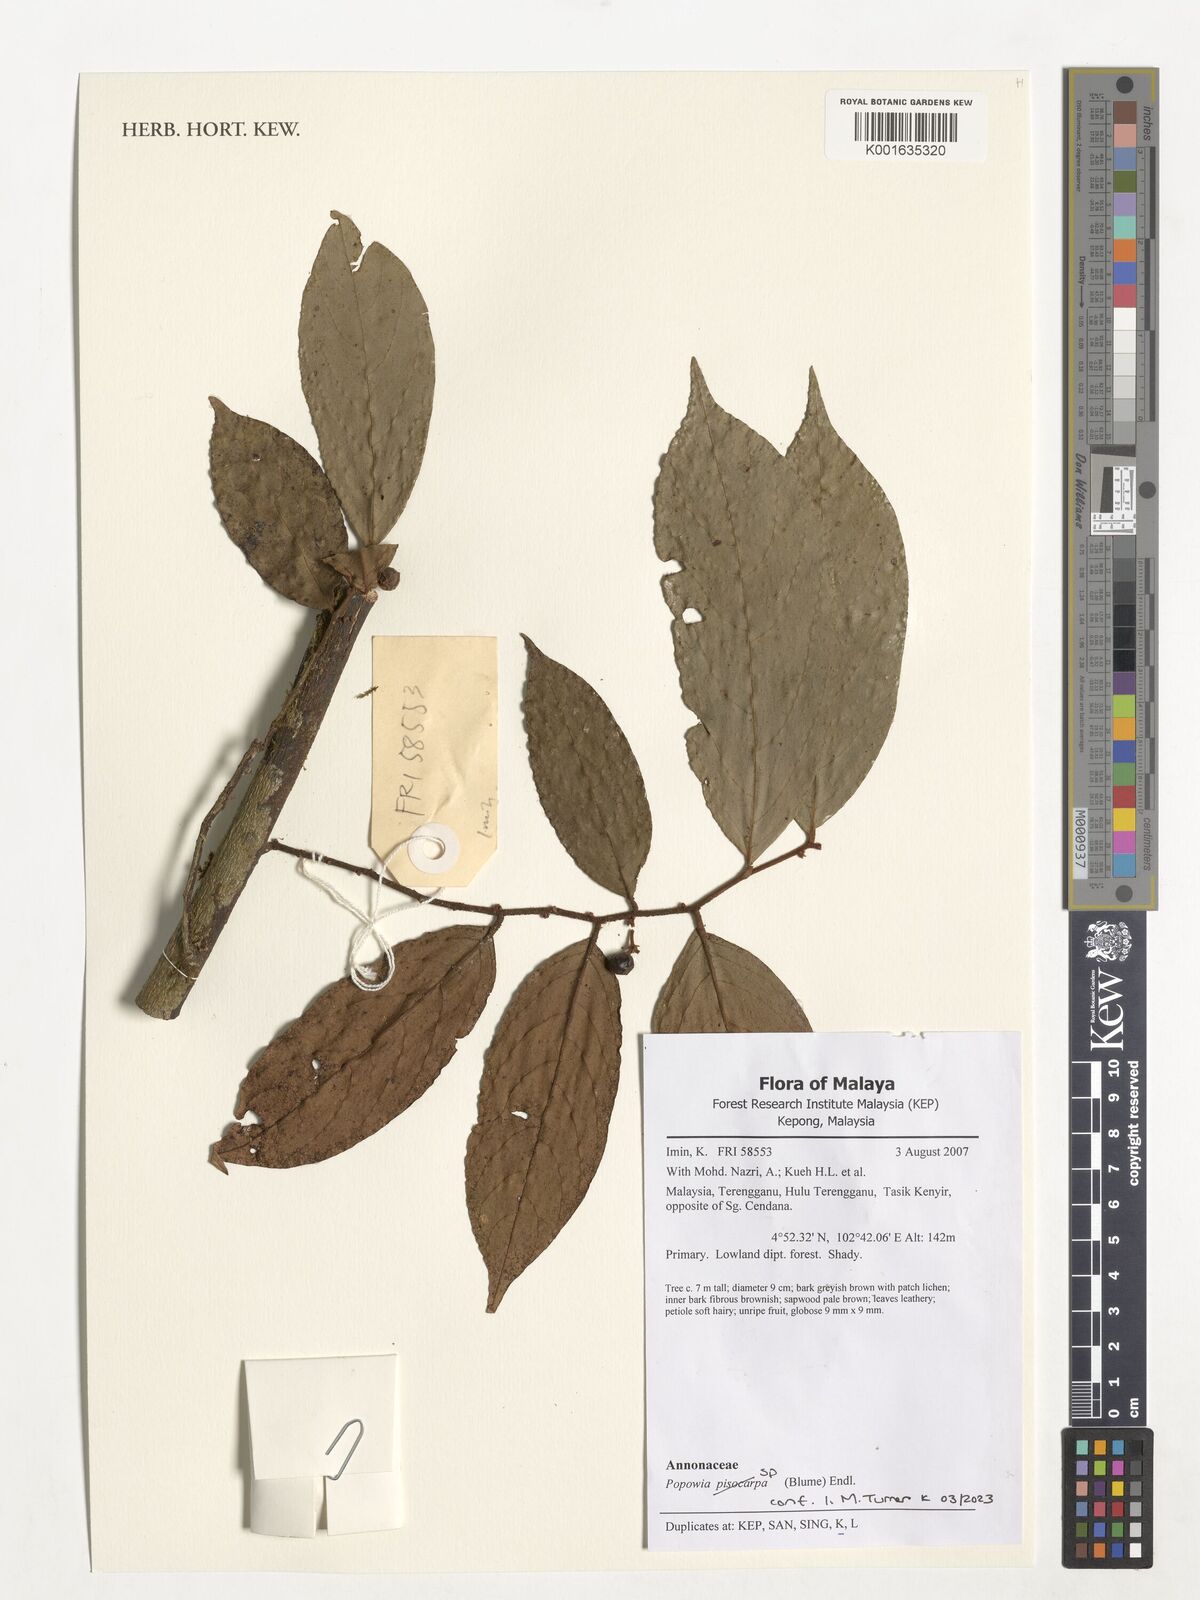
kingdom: Plantae
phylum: Tracheophyta
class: Magnoliopsida
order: Magnoliales
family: Annonaceae
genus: Popowia
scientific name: Popowia
